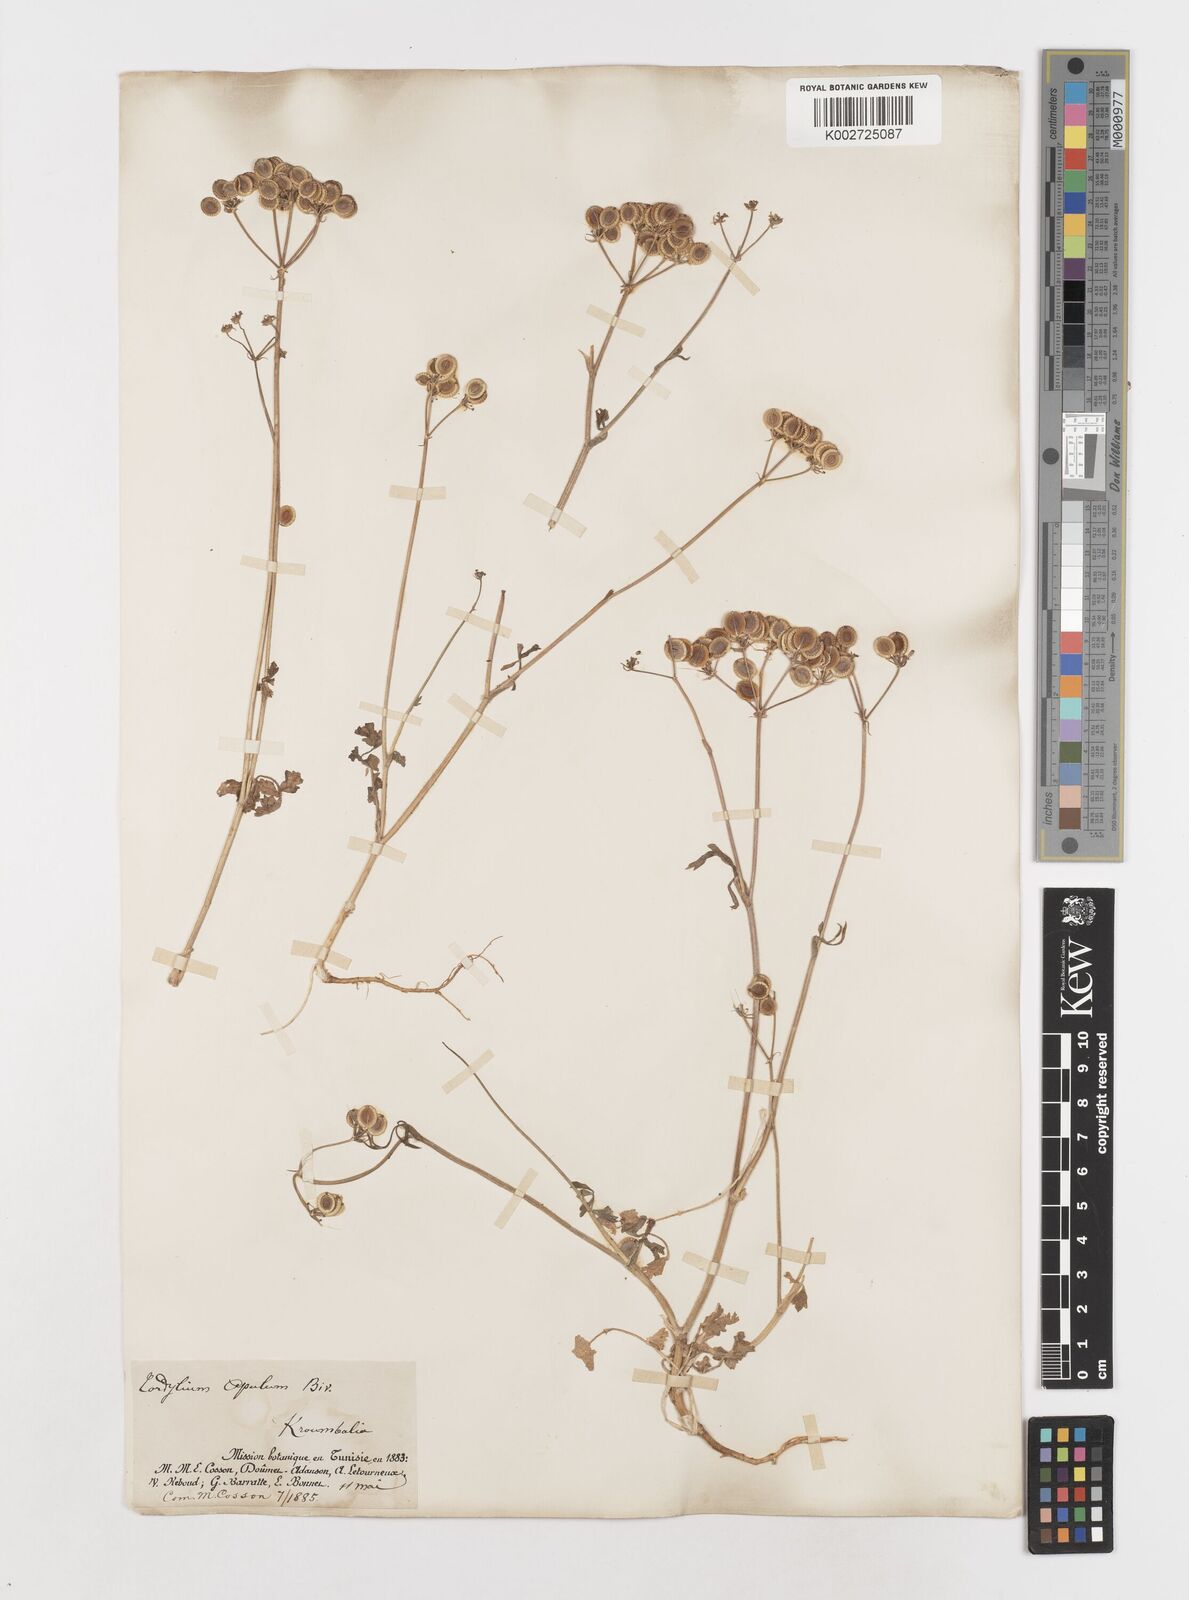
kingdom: Plantae
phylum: Tracheophyta
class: Magnoliopsida
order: Apiales
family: Apiaceae
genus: Tordylium
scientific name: Tordylium apulum
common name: Mediterranean hartwort
